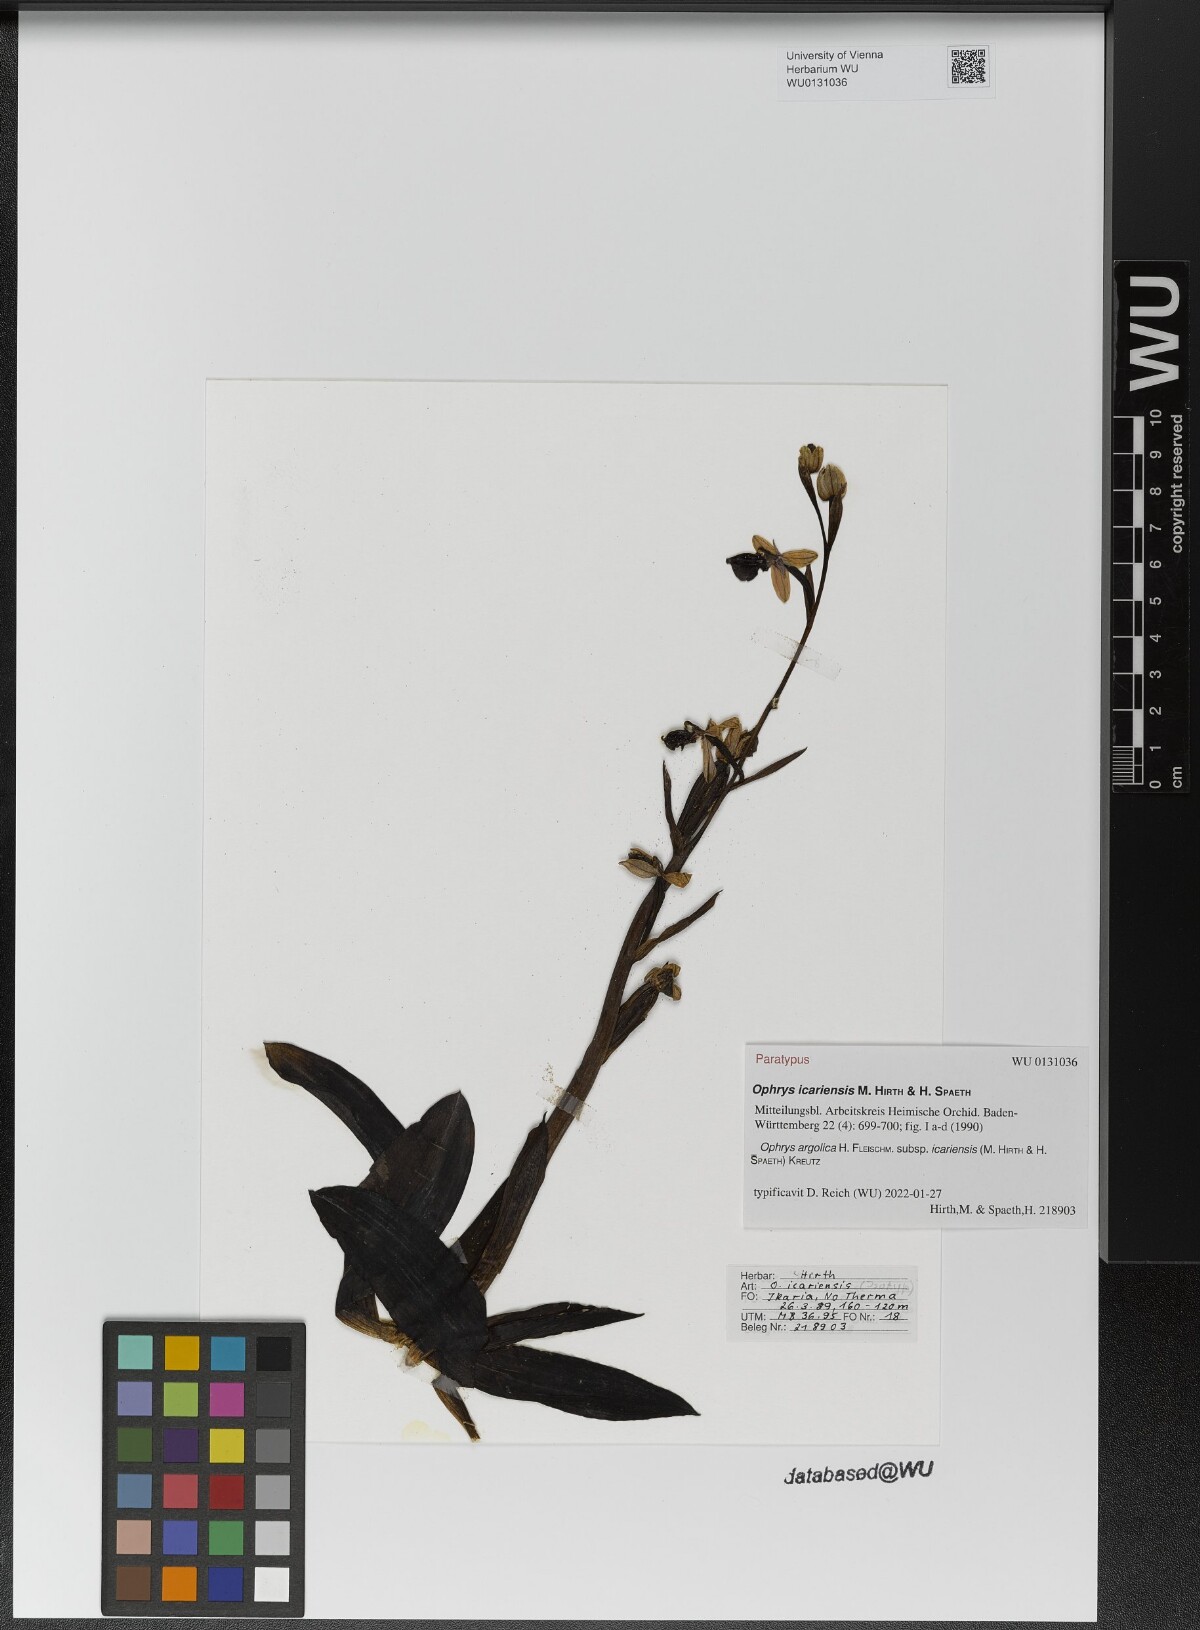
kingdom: Plantae
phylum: Tracheophyta
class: Liliopsida
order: Asparagales
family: Orchidaceae
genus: Ophrys
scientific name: Ophrys argolica
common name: Argolic ophrys
